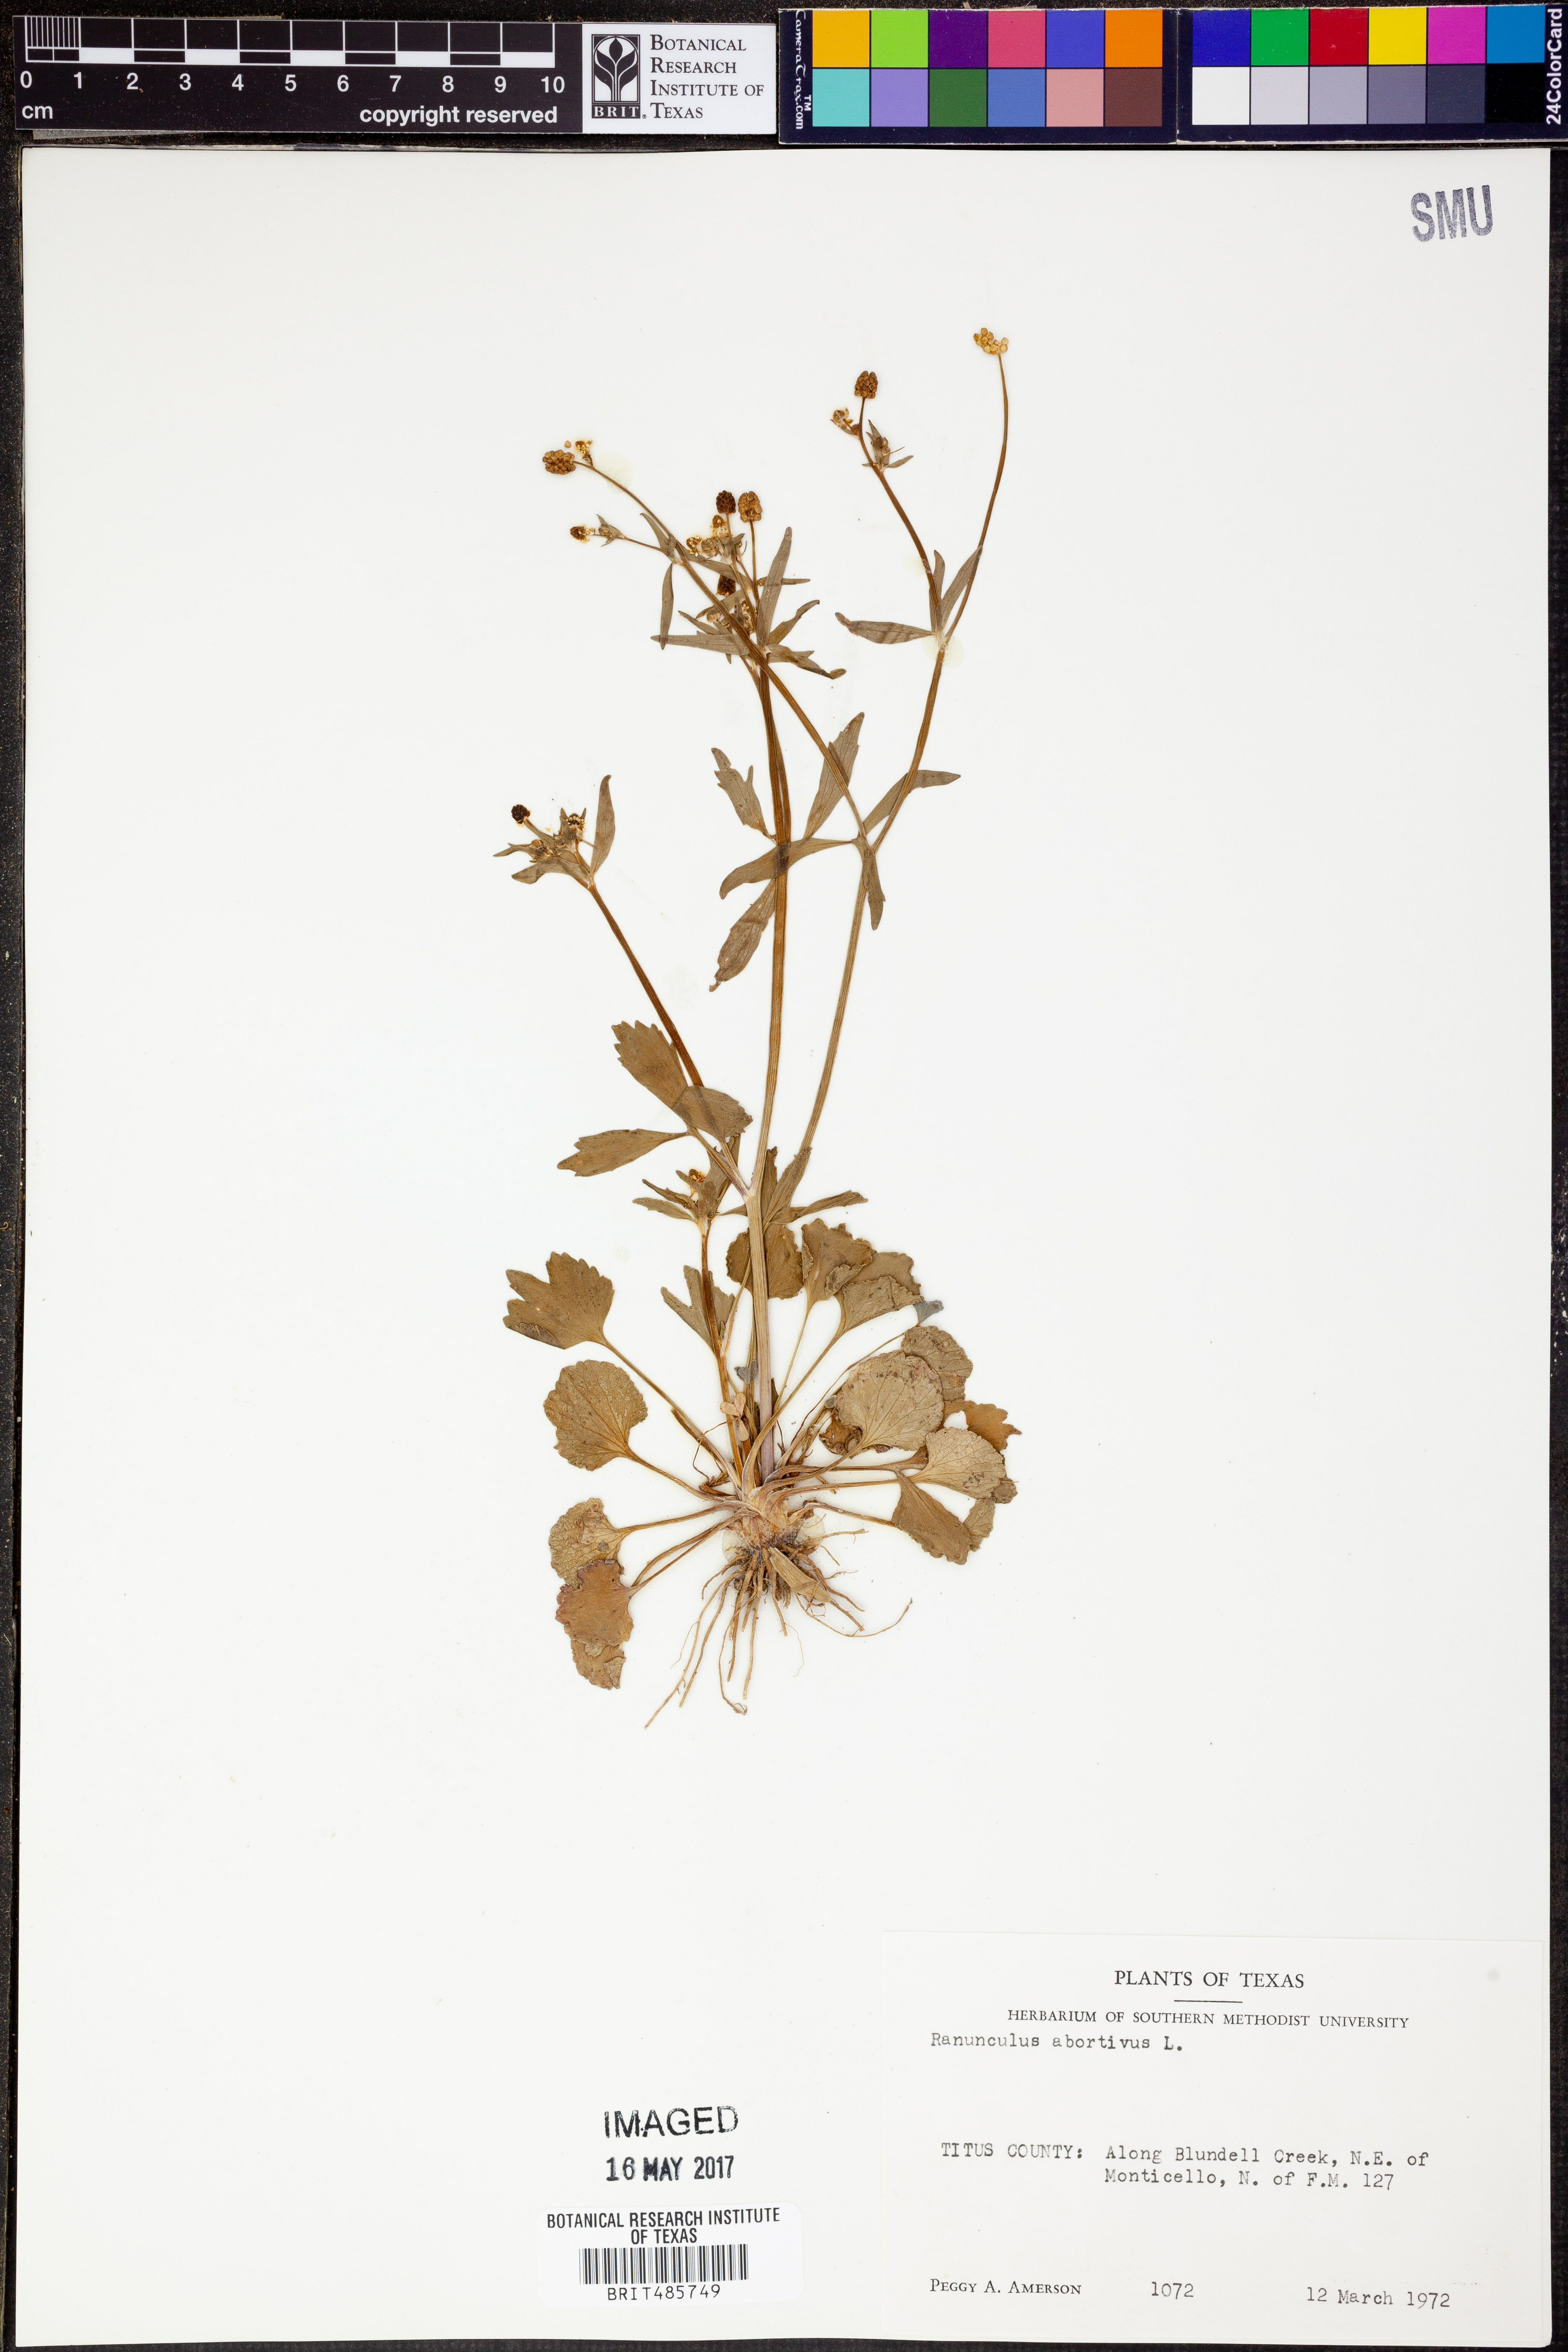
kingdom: Plantae
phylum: Tracheophyta
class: Magnoliopsida
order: Ranunculales
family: Ranunculaceae
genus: Ranunculus
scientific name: Ranunculus abortivus
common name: Early wood buttercup
